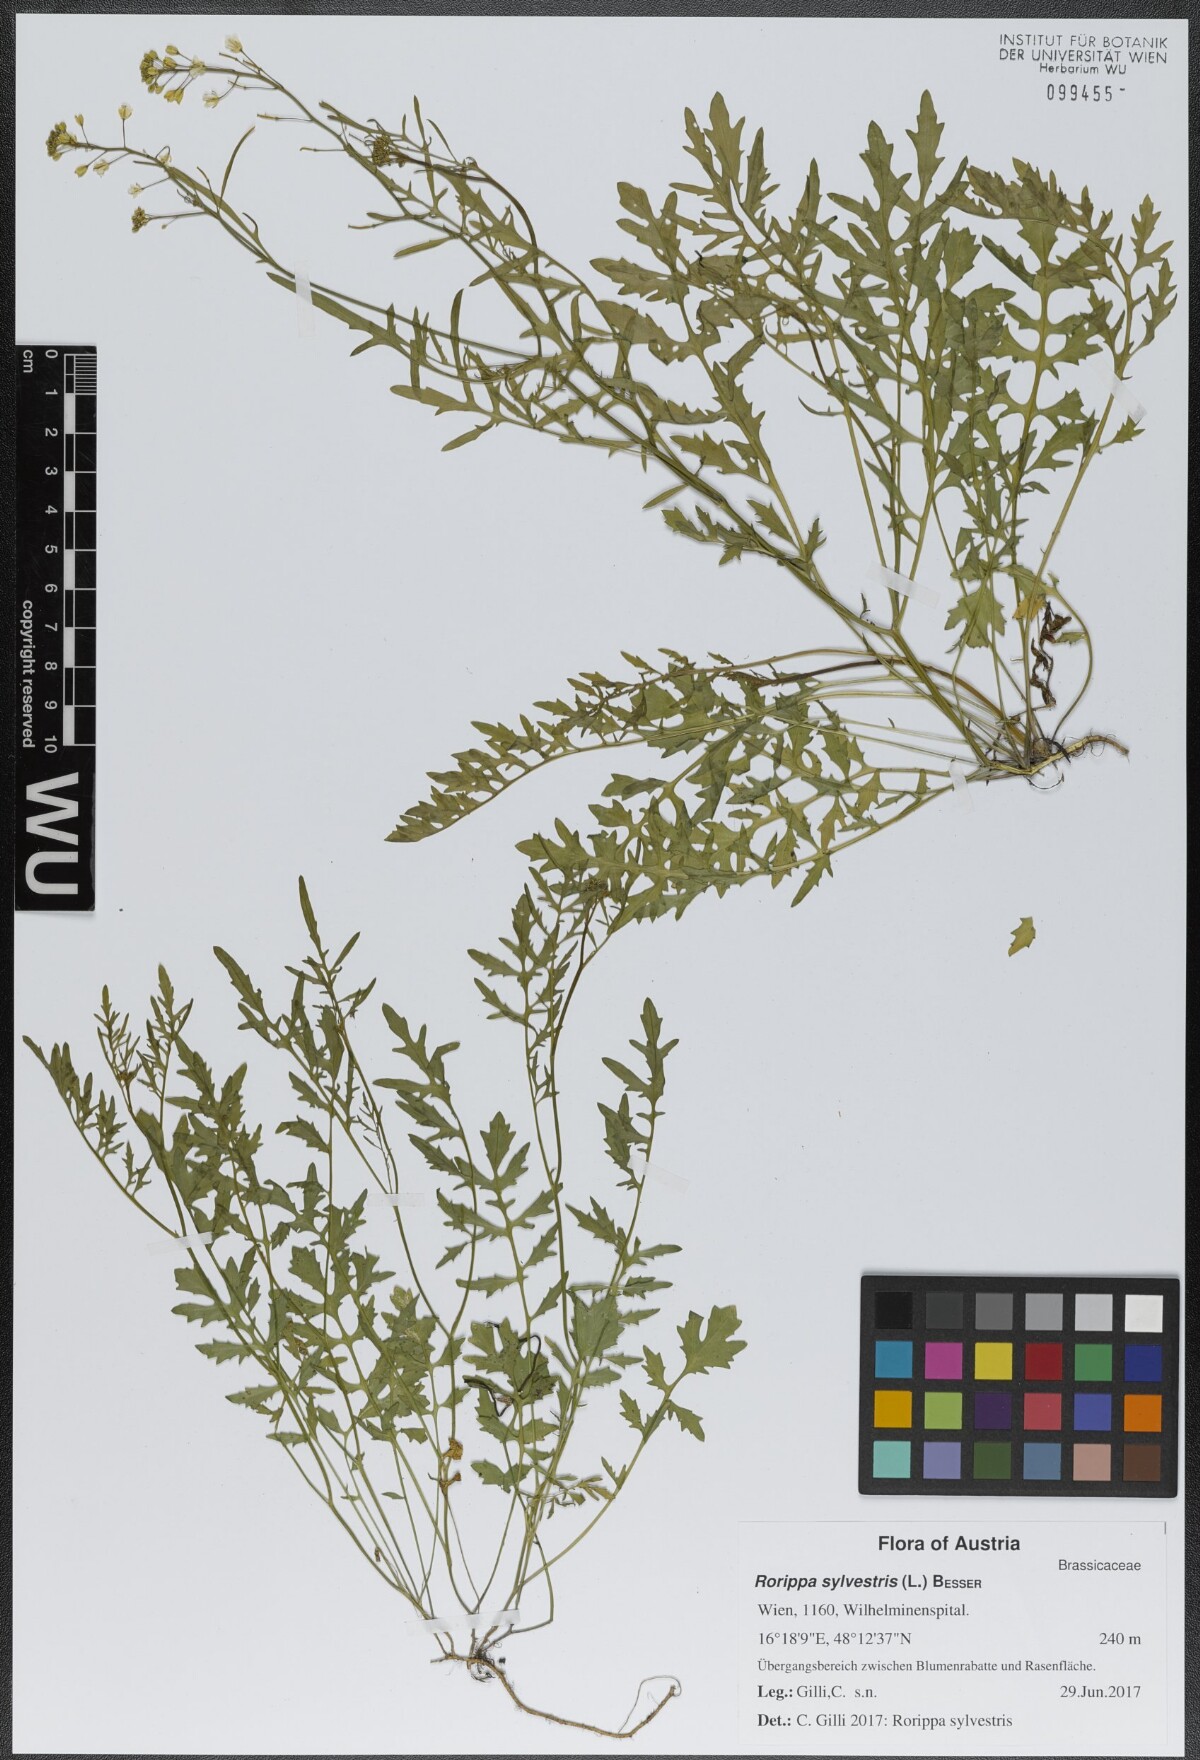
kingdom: Plantae
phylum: Tracheophyta
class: Magnoliopsida
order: Brassicales
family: Brassicaceae
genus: Rorippa
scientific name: Rorippa sylvestris
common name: Creeping yellowcress
